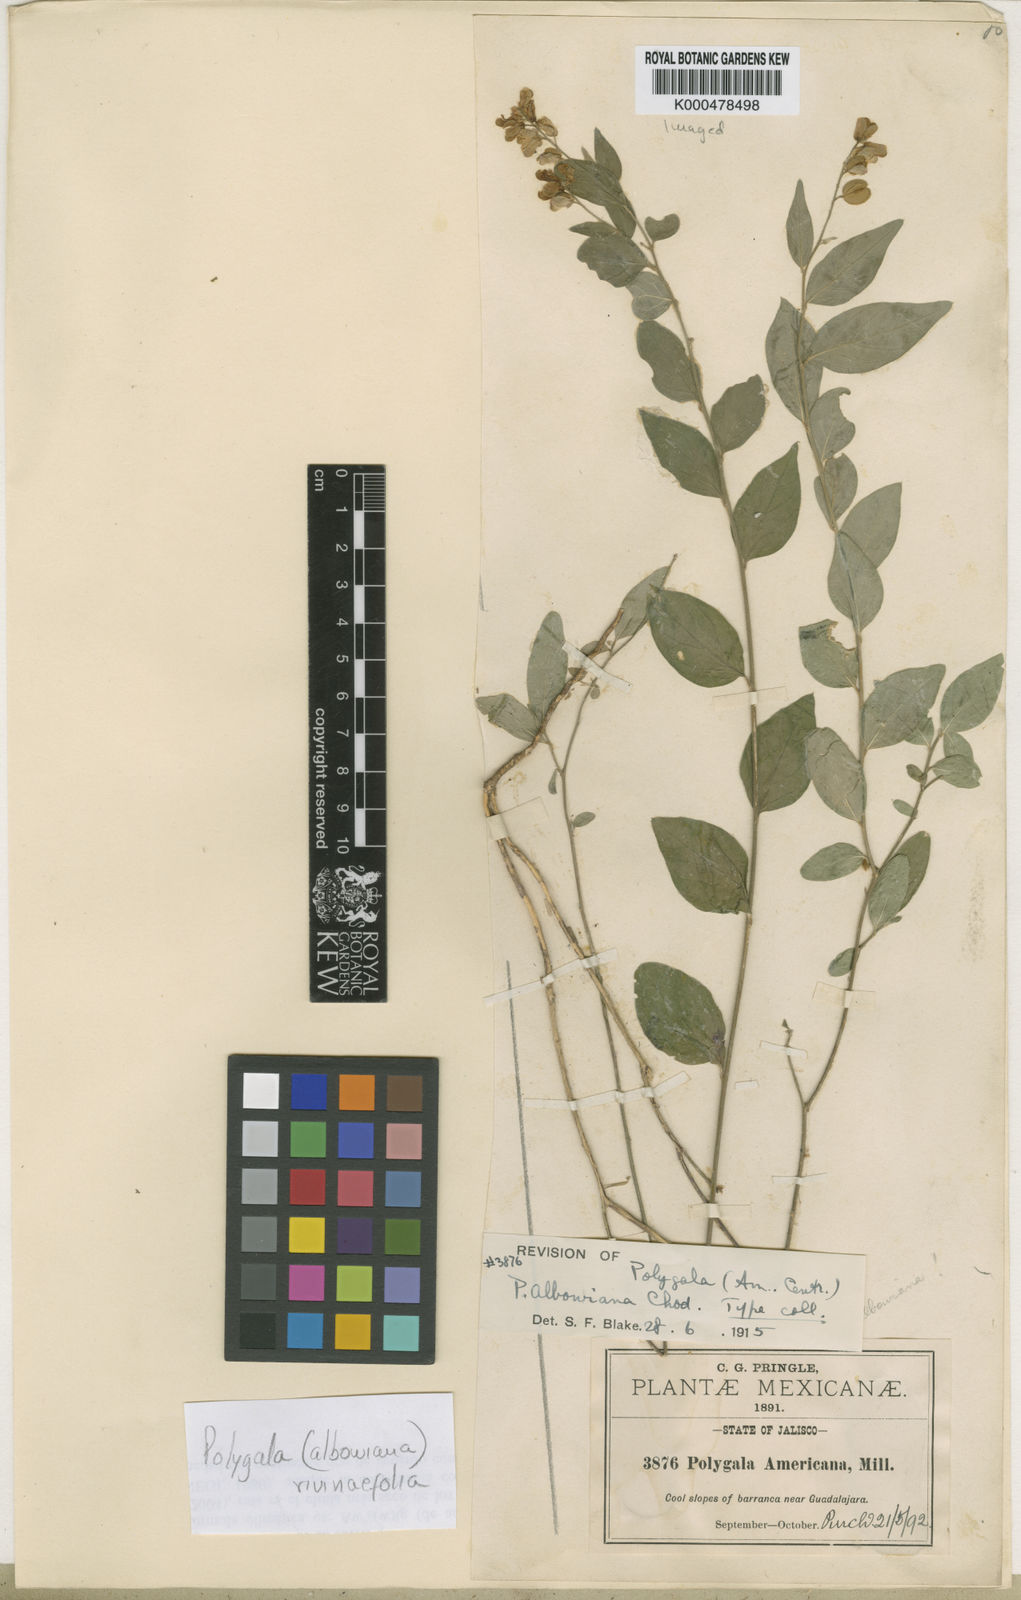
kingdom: Plantae
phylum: Tracheophyta
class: Magnoliopsida
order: Fabales
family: Polygalaceae
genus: Hebecarpa
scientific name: Hebecarpa rivinifolia
